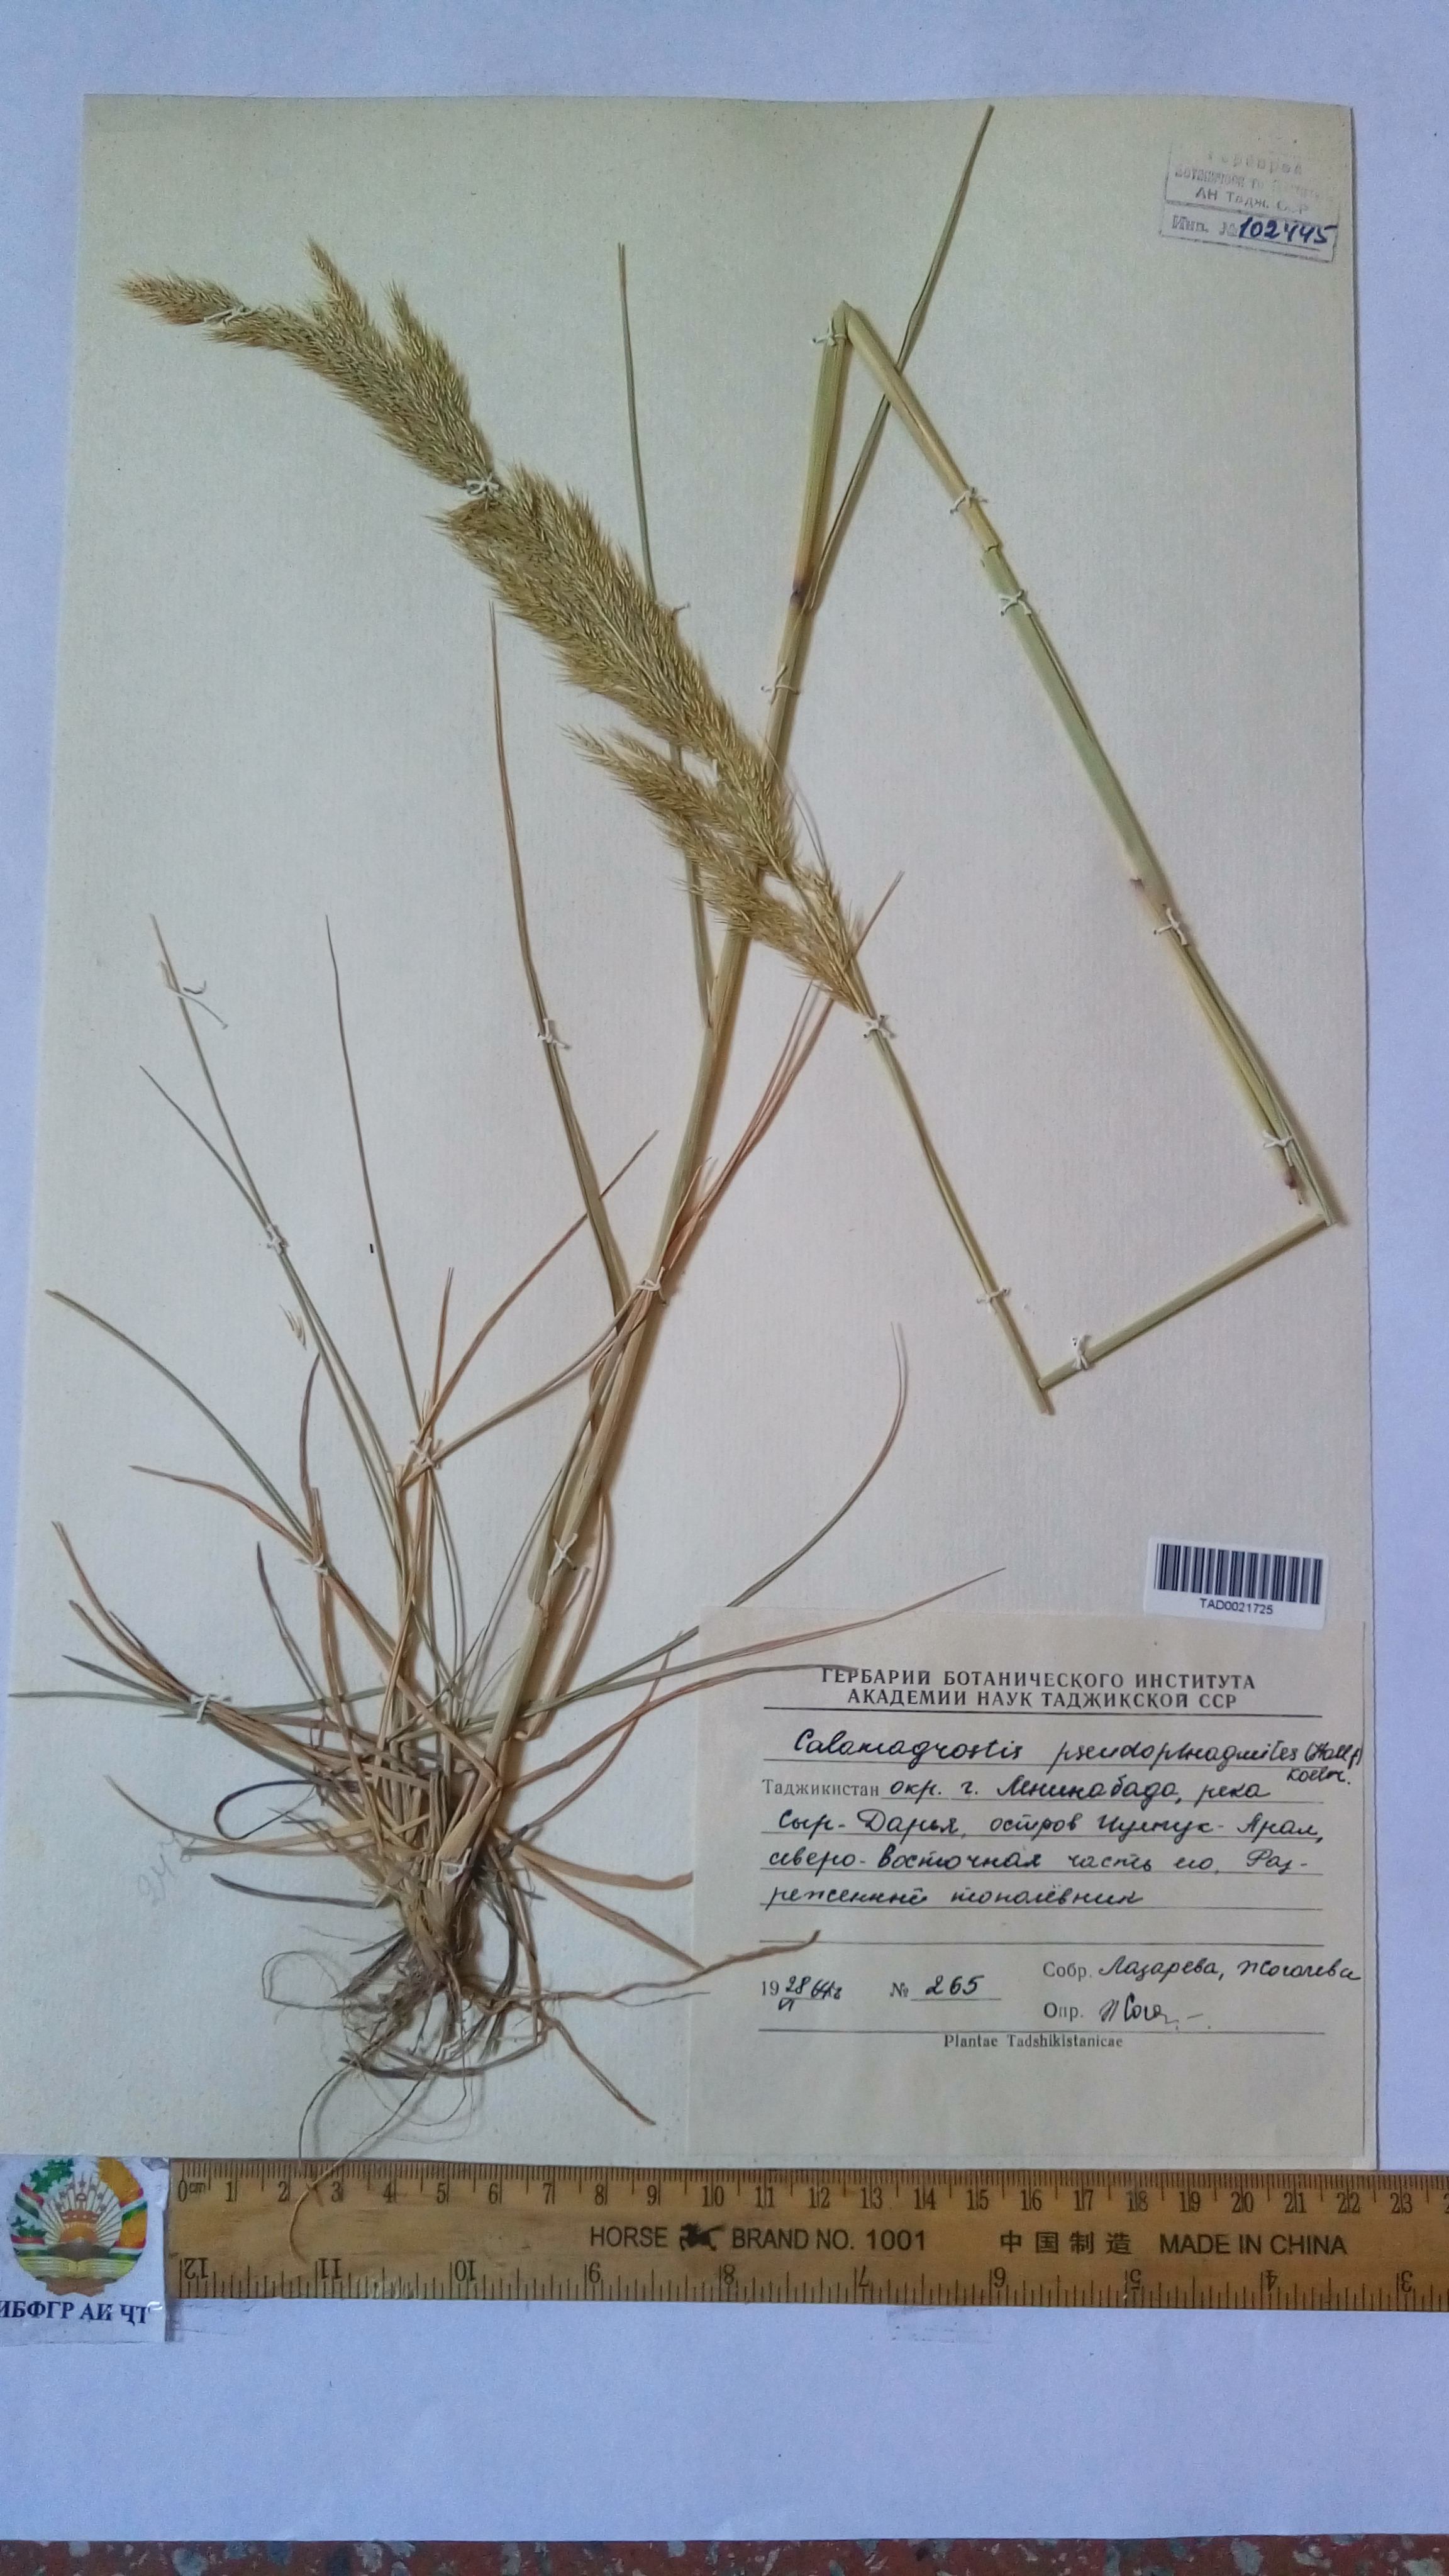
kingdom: Plantae
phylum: Tracheophyta
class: Liliopsida
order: Poales
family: Poaceae
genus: Calamagrostis
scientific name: Calamagrostis pseudophragmites
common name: Coastal small-reed
